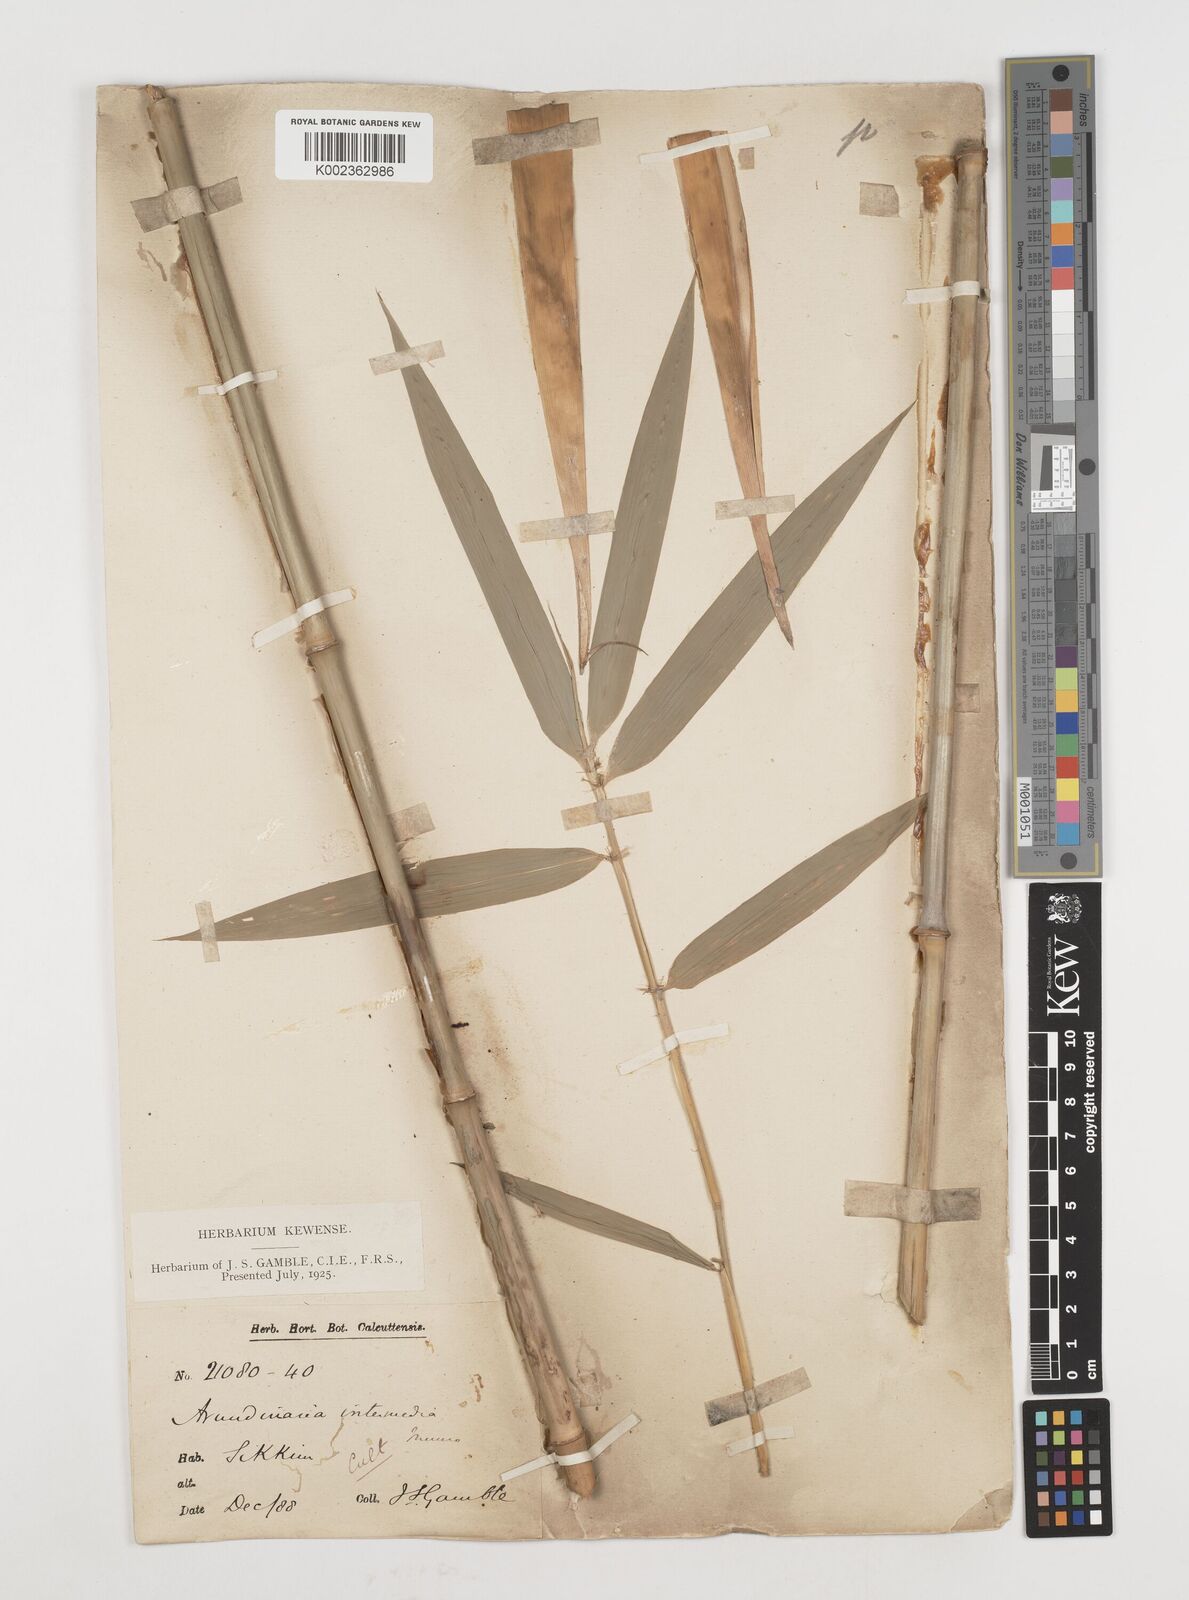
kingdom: Plantae
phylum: Tracheophyta
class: Liliopsida
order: Poales
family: Poaceae
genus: Drepanostachyum
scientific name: Drepanostachyum intermedium
